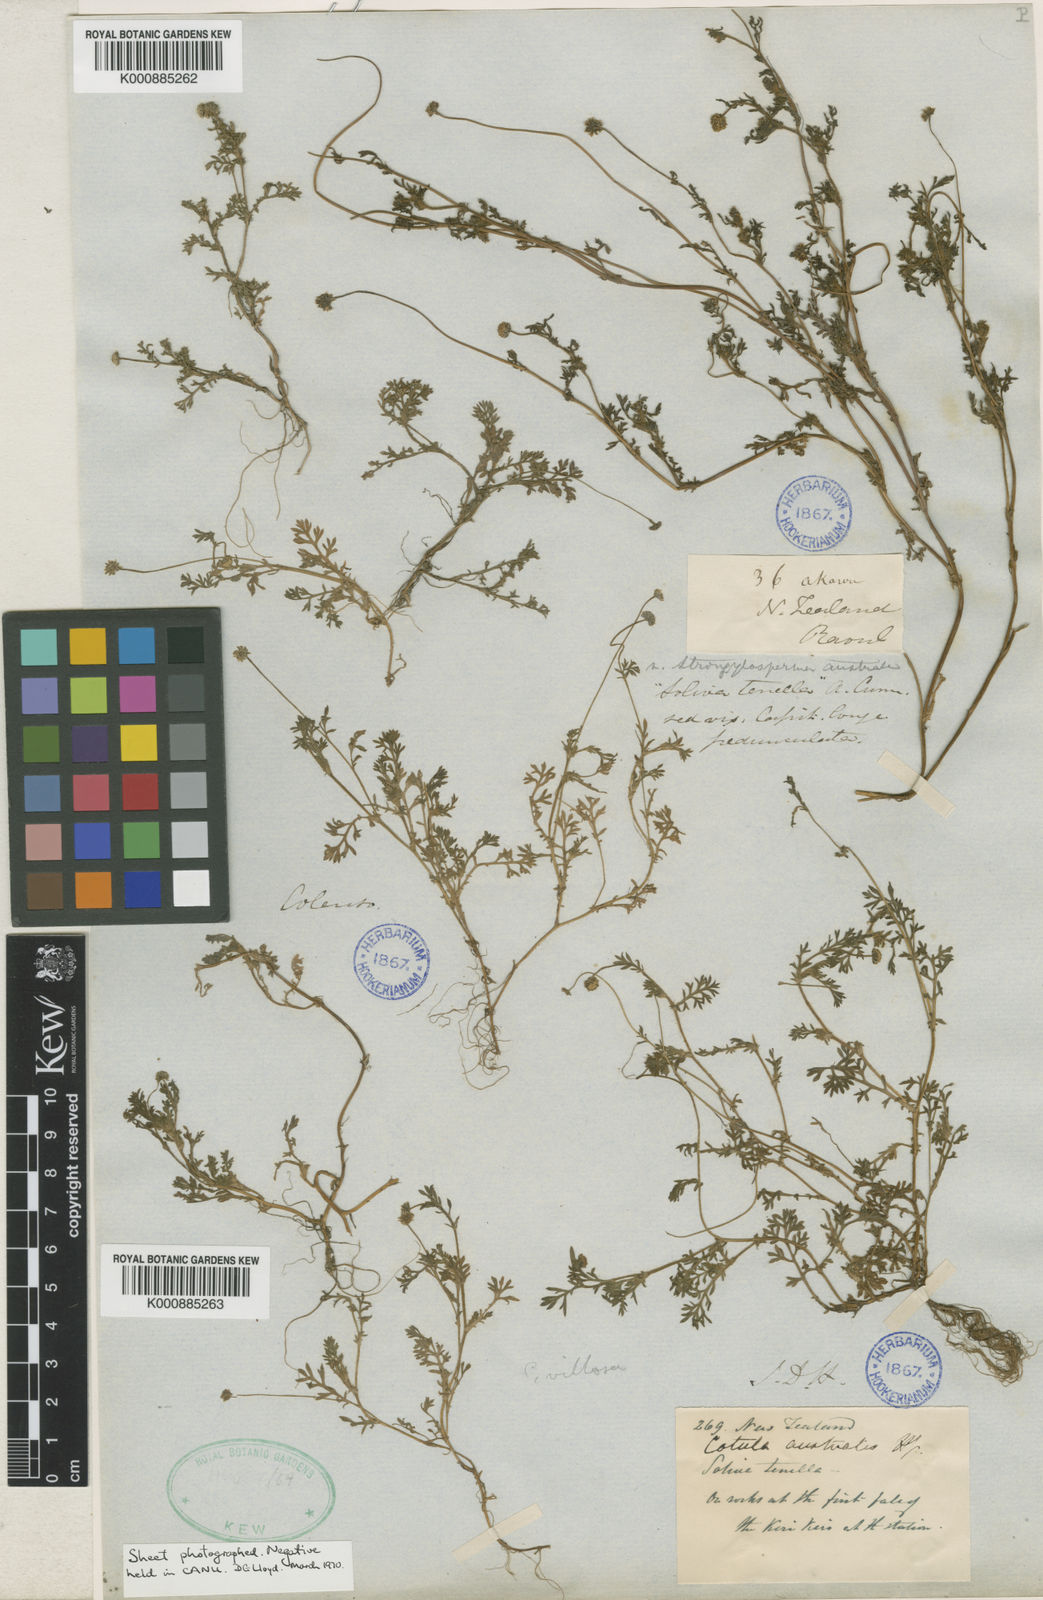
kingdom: Plantae
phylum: Tracheophyta
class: Magnoliopsida
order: Asterales
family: Asteraceae
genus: Cotula
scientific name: Cotula australis
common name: Australian waterbuttons
